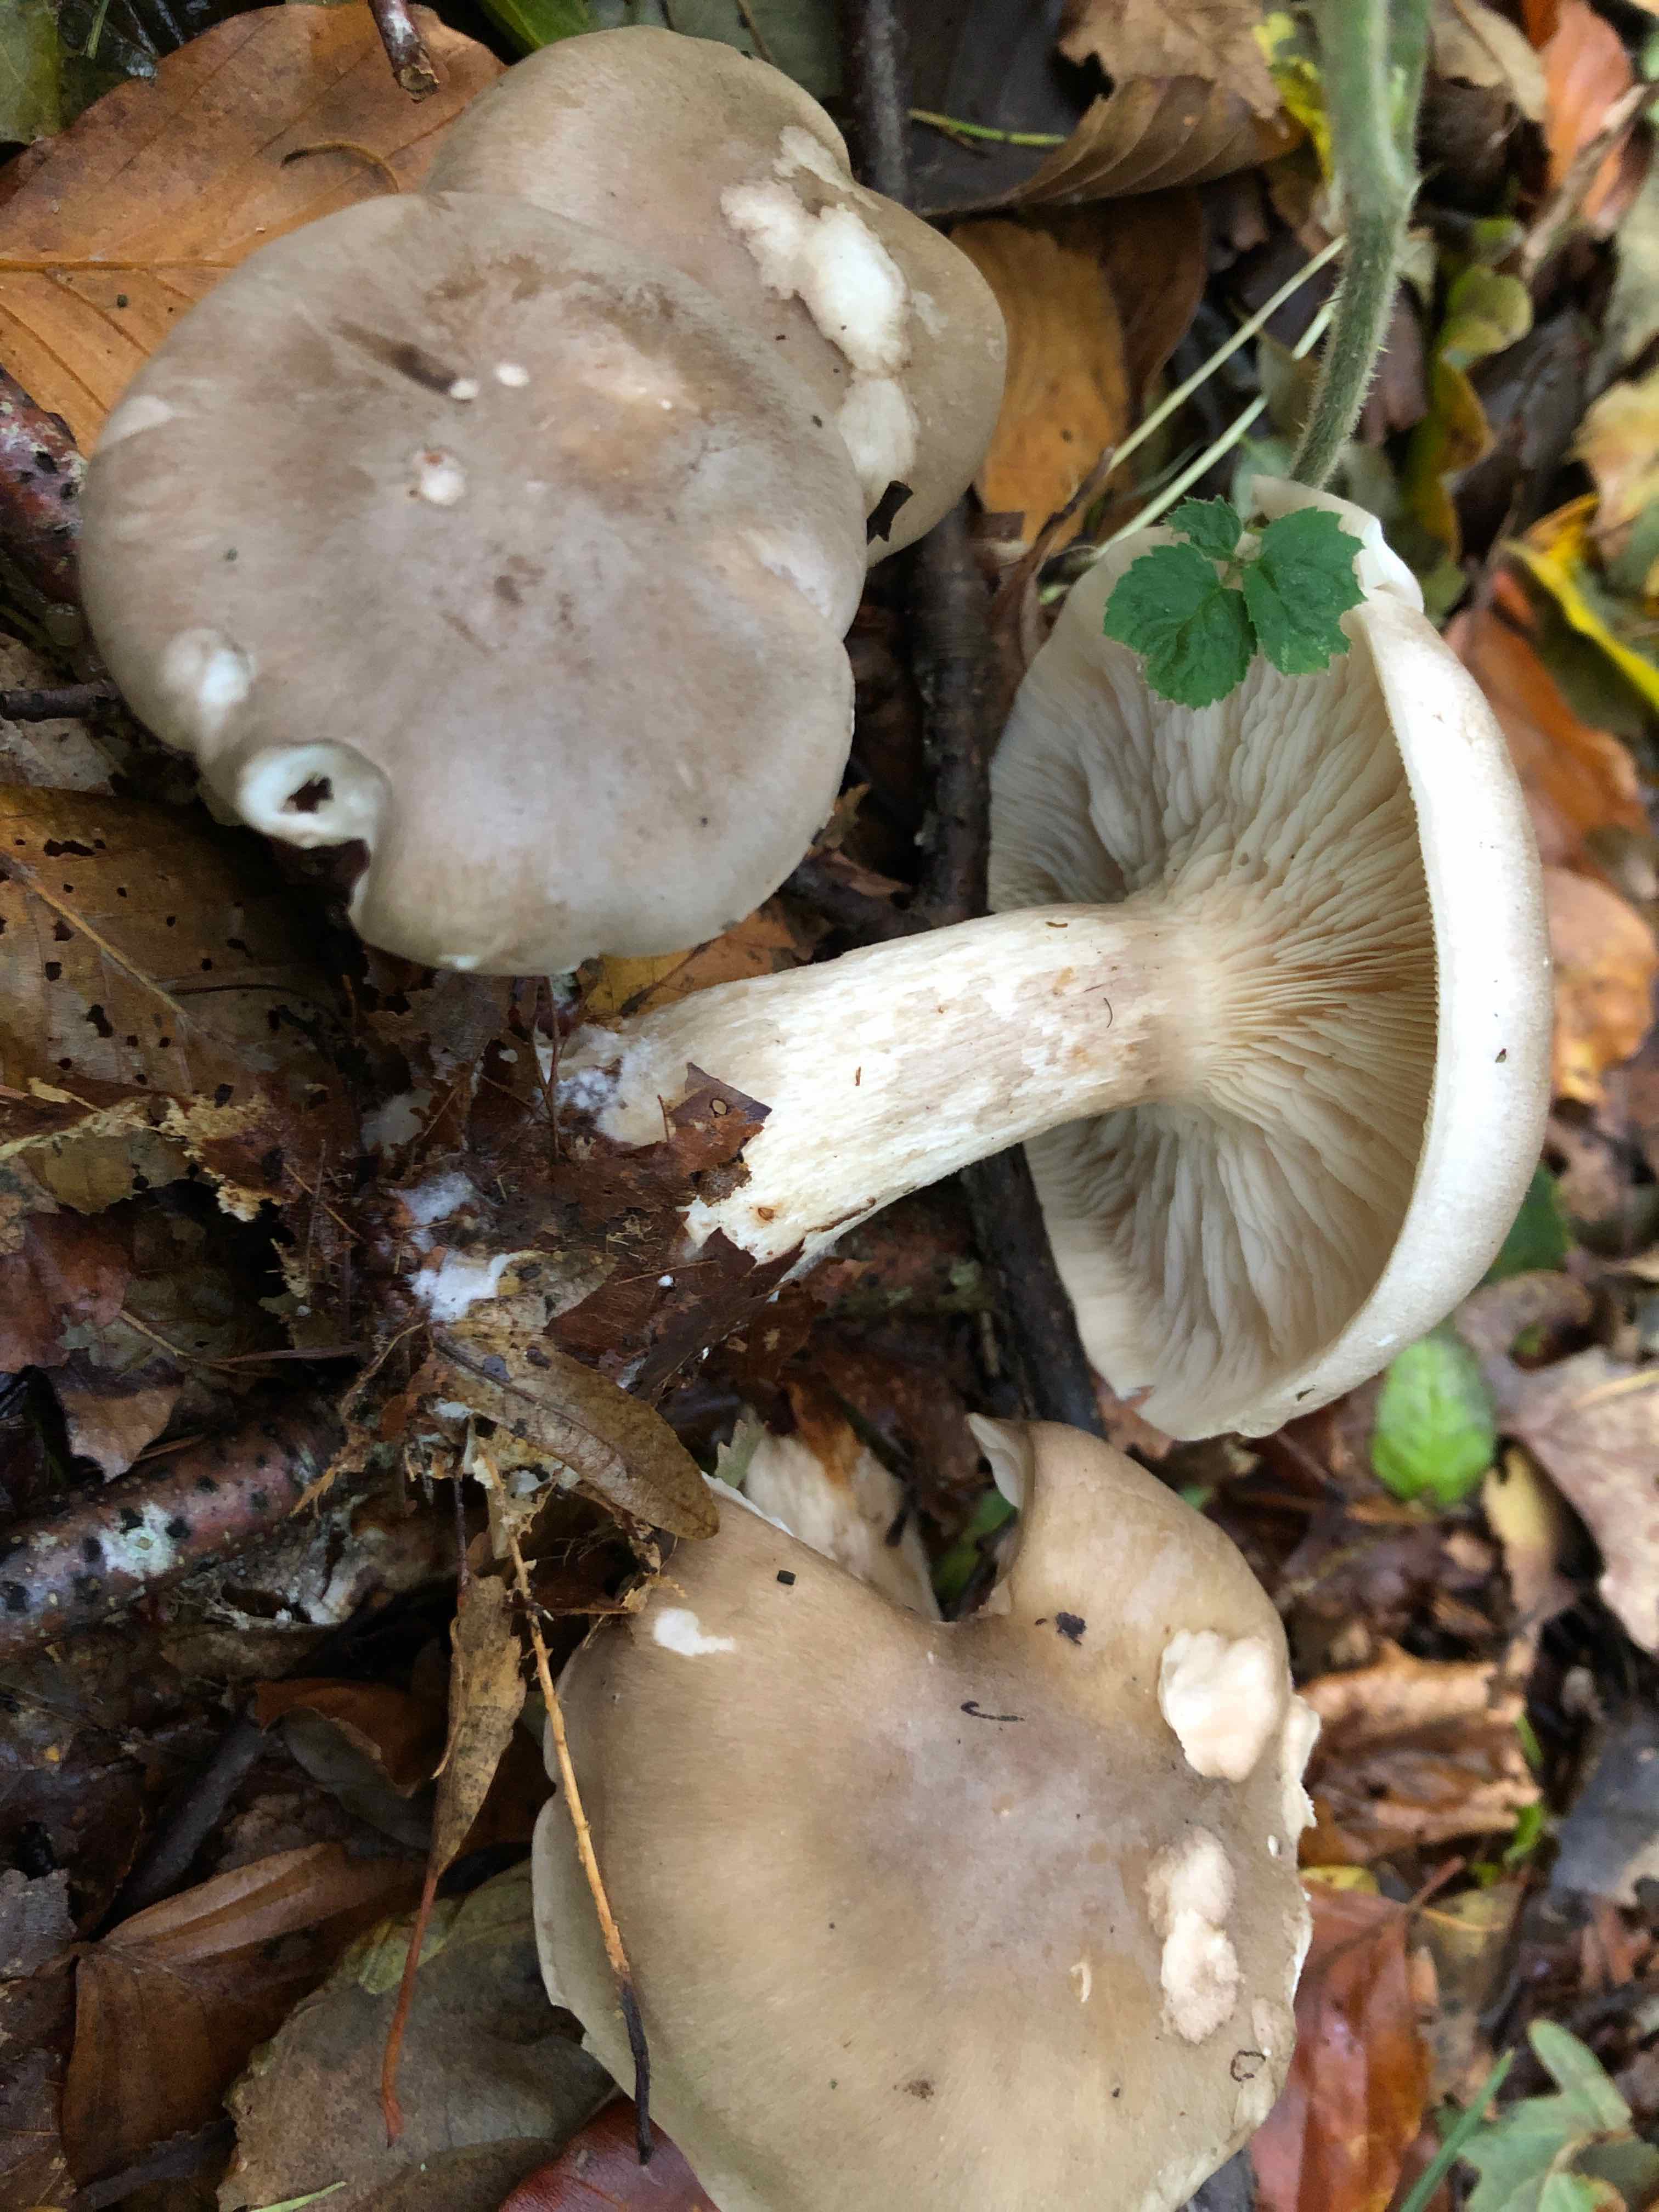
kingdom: Fungi
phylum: Basidiomycota
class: Agaricomycetes
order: Agaricales
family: Tricholomataceae
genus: Clitocybe
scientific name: Clitocybe nebularis
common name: tåge-tragthat
